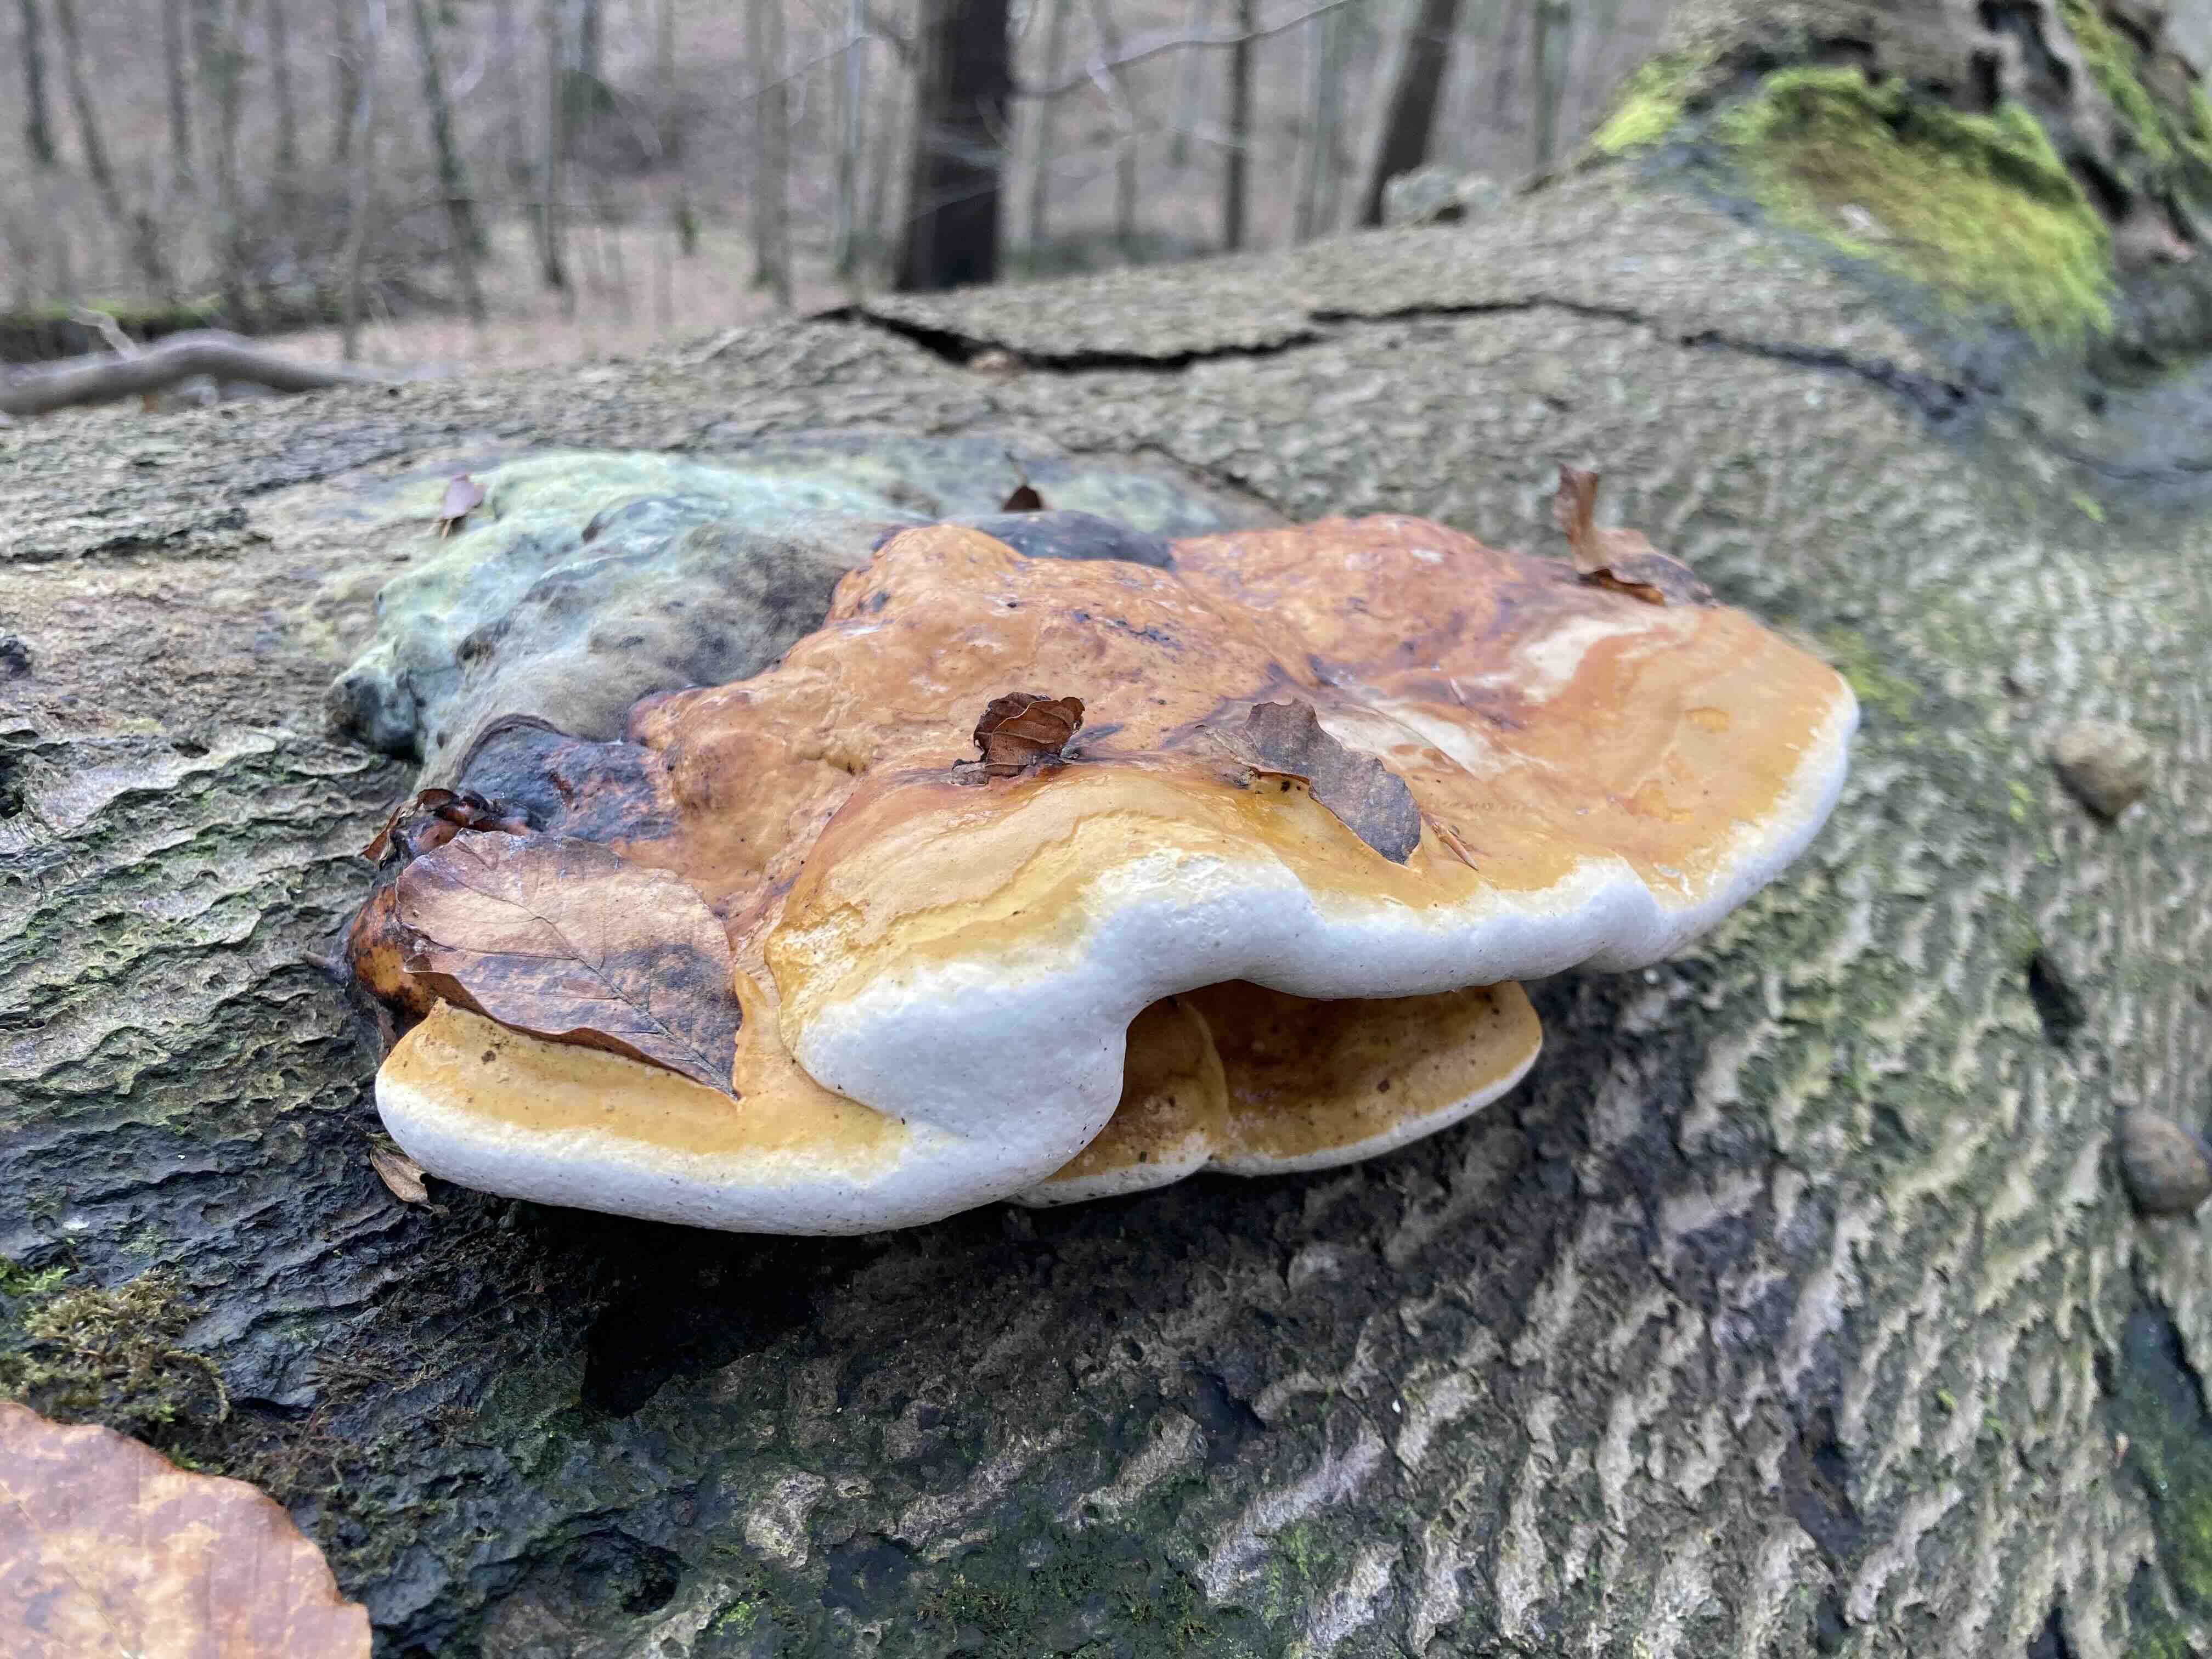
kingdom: Fungi
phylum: Basidiomycota
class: Agaricomycetes
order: Polyporales
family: Fomitopsidaceae
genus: Fomitopsis
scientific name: Fomitopsis pinicola
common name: randbæltet hovporesvamp
